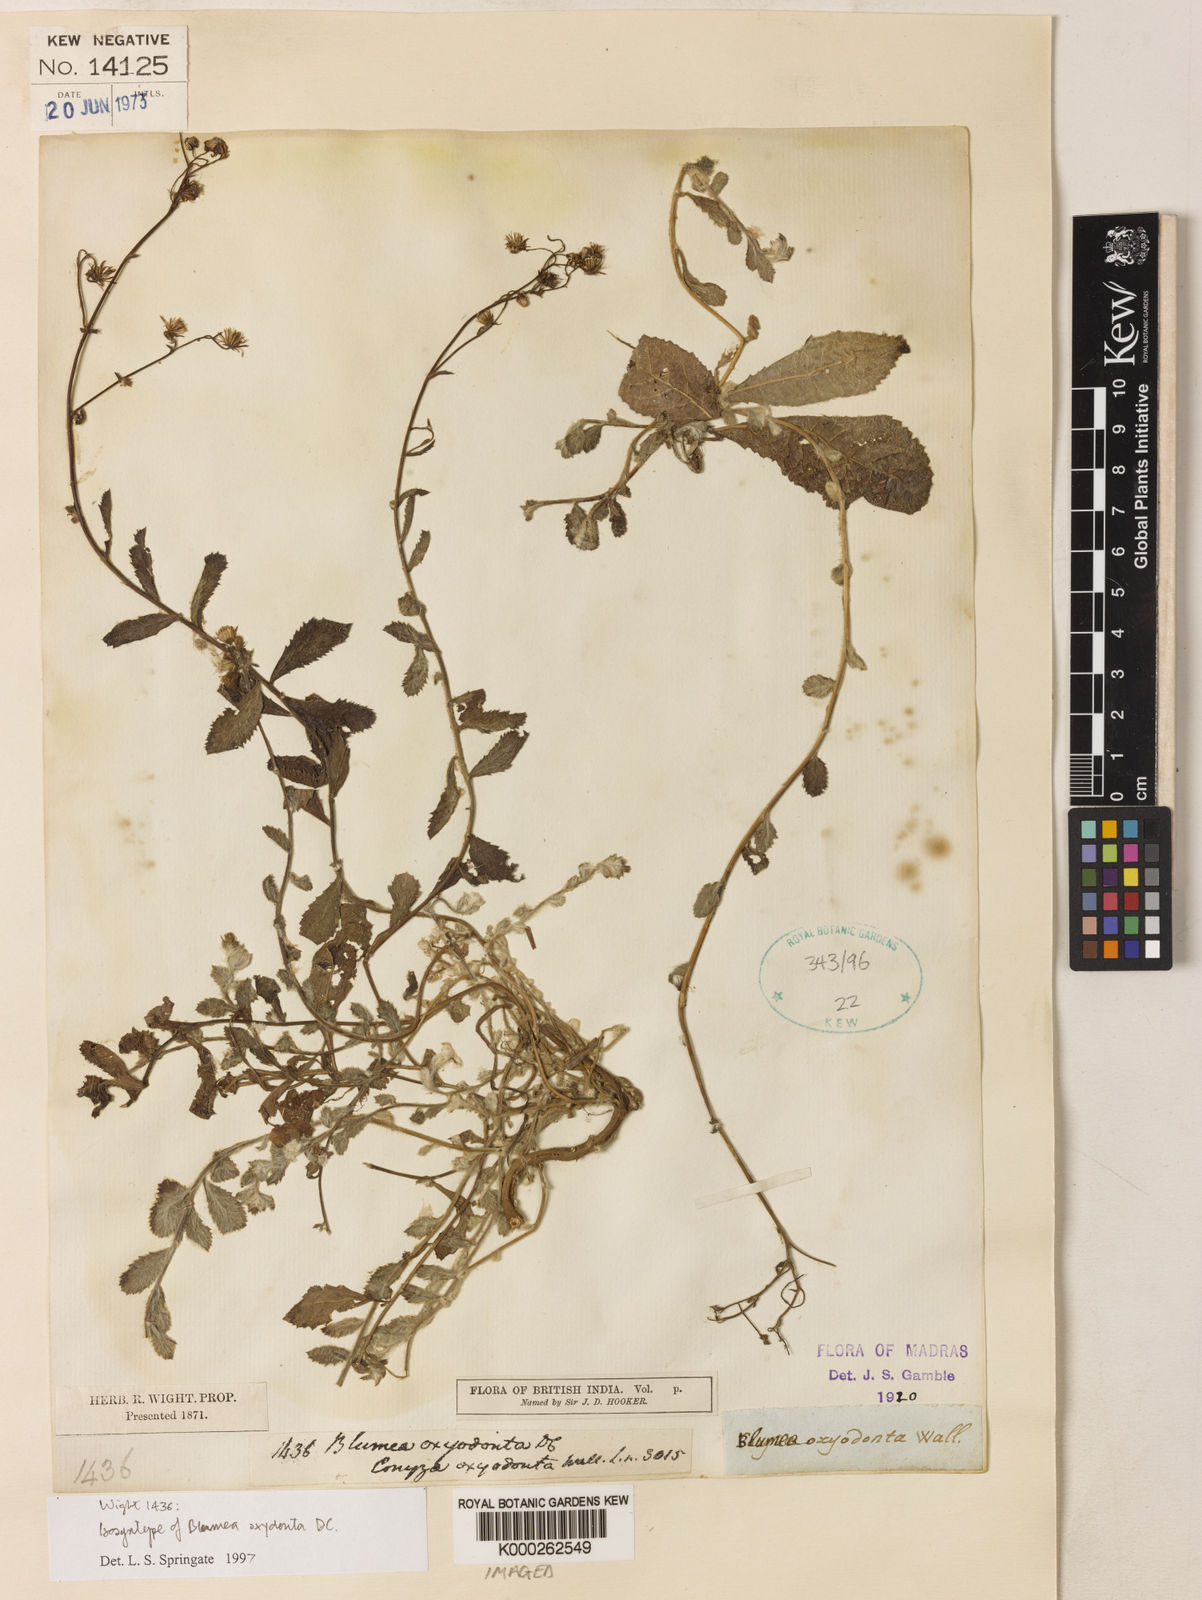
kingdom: Plantae
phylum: Tracheophyta
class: Magnoliopsida
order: Asterales
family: Asteraceae
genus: Blumea
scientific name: Blumea oxyodonta
